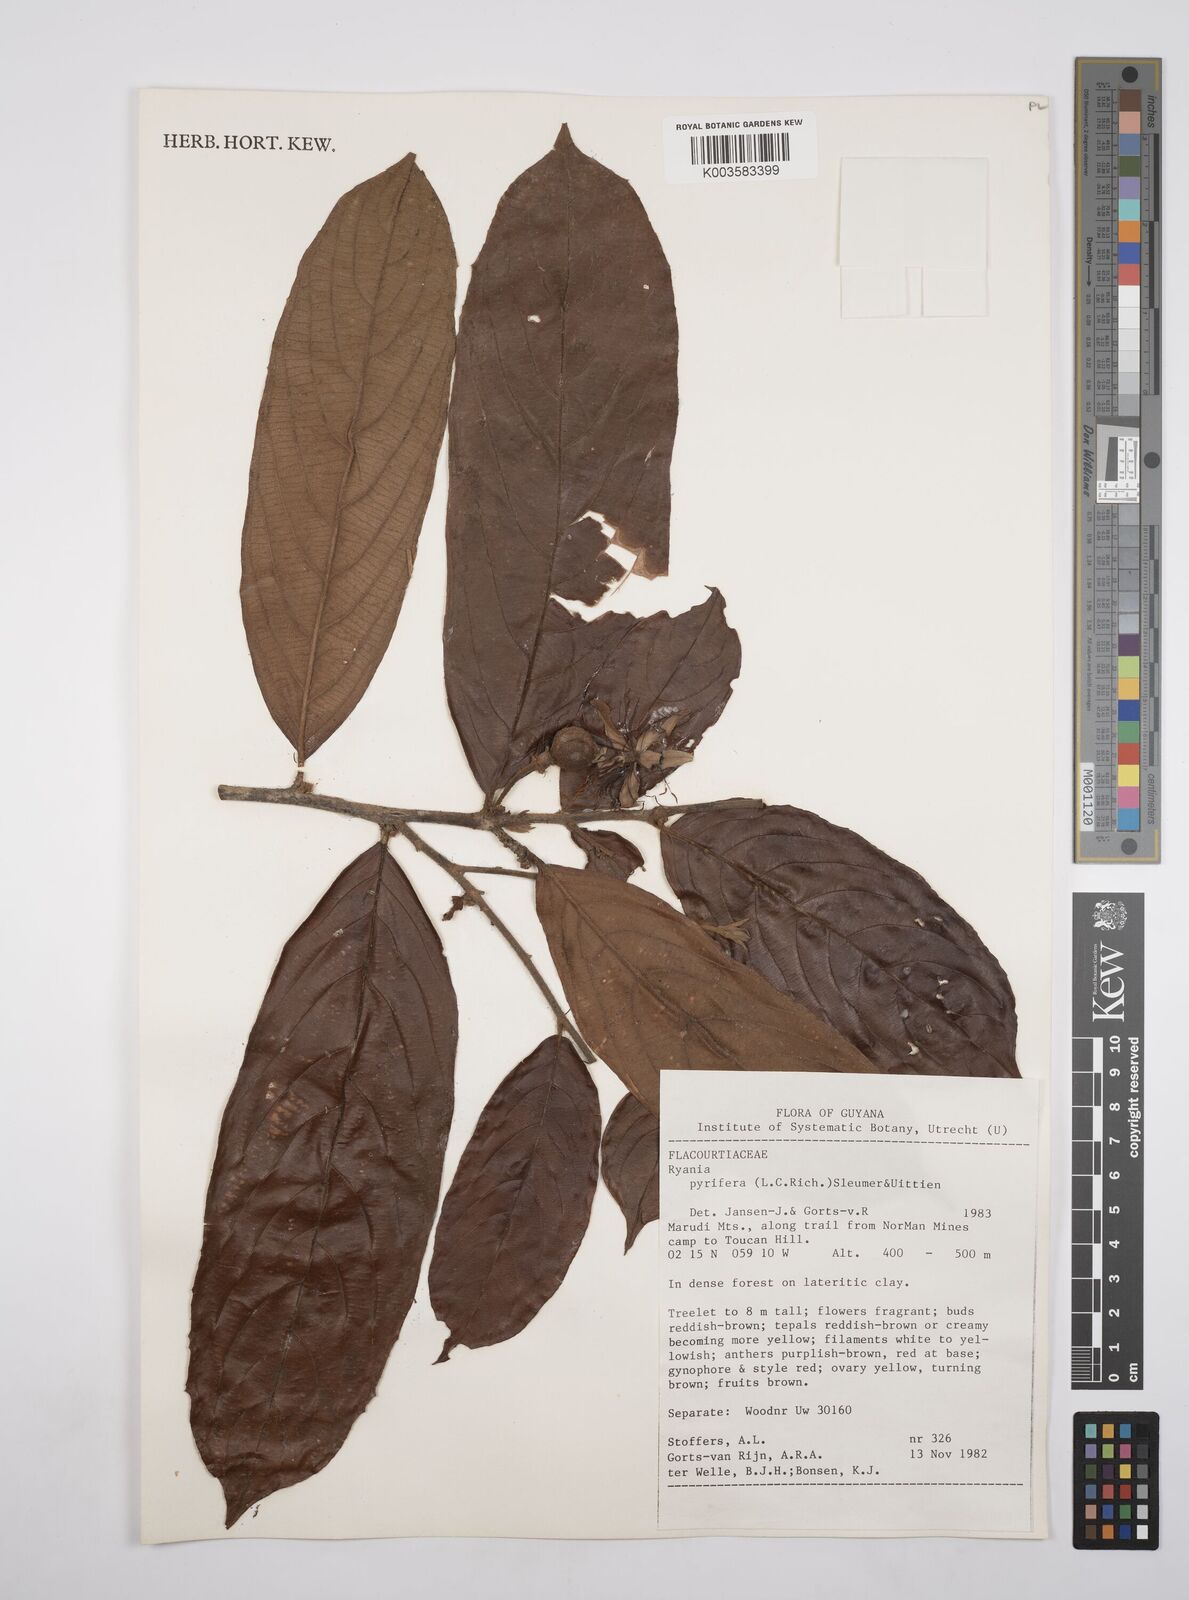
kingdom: Plantae
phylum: Tracheophyta
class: Magnoliopsida
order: Malpighiales
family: Salicaceae
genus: Ryania
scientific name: Ryania pyrifera
